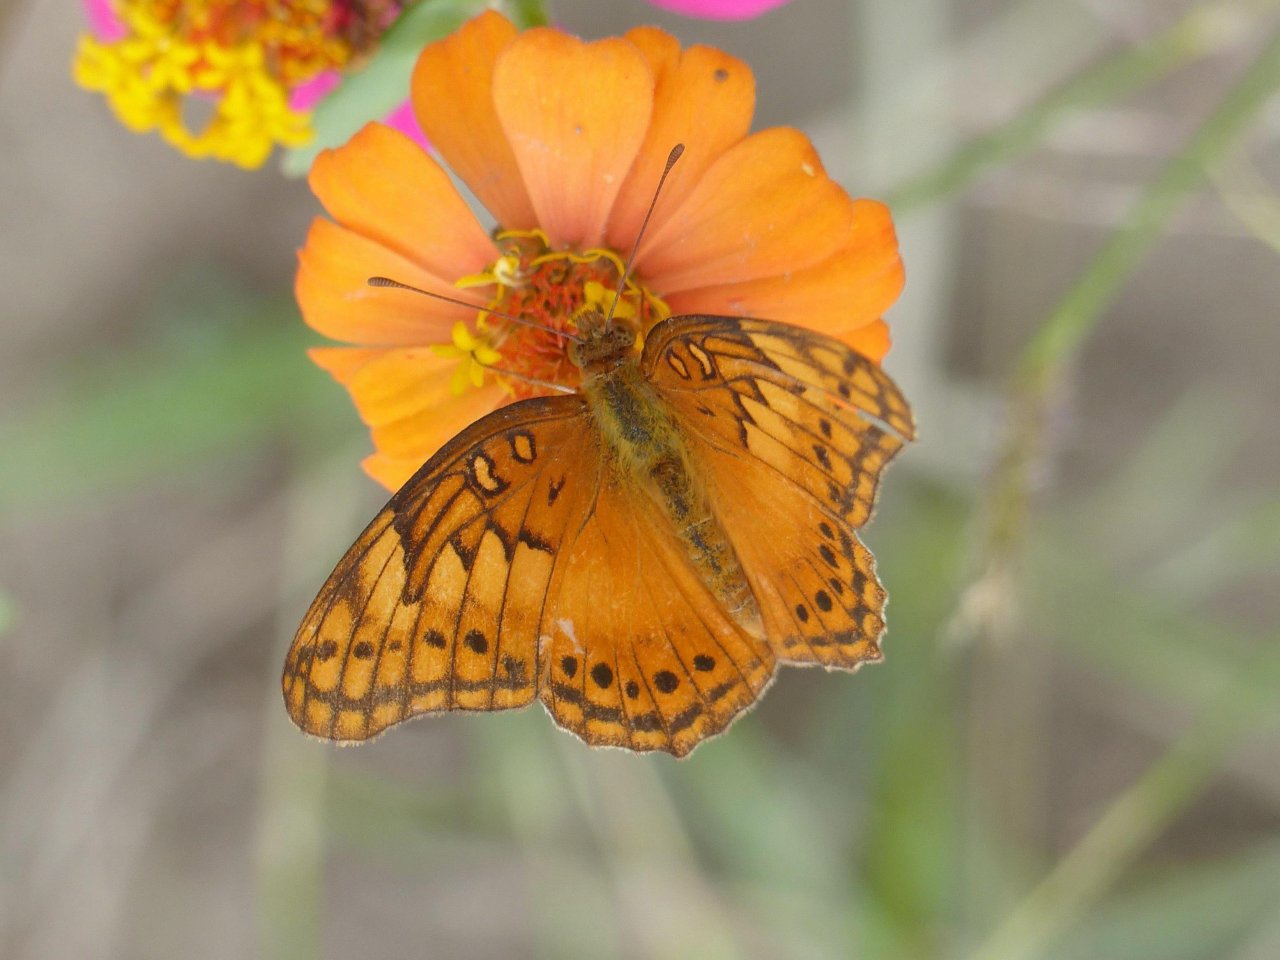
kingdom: Animalia
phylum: Arthropoda
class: Insecta
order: Lepidoptera
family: Nymphalidae
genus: Euptoieta
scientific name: Euptoieta hegesia
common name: Mexican Fritillary
